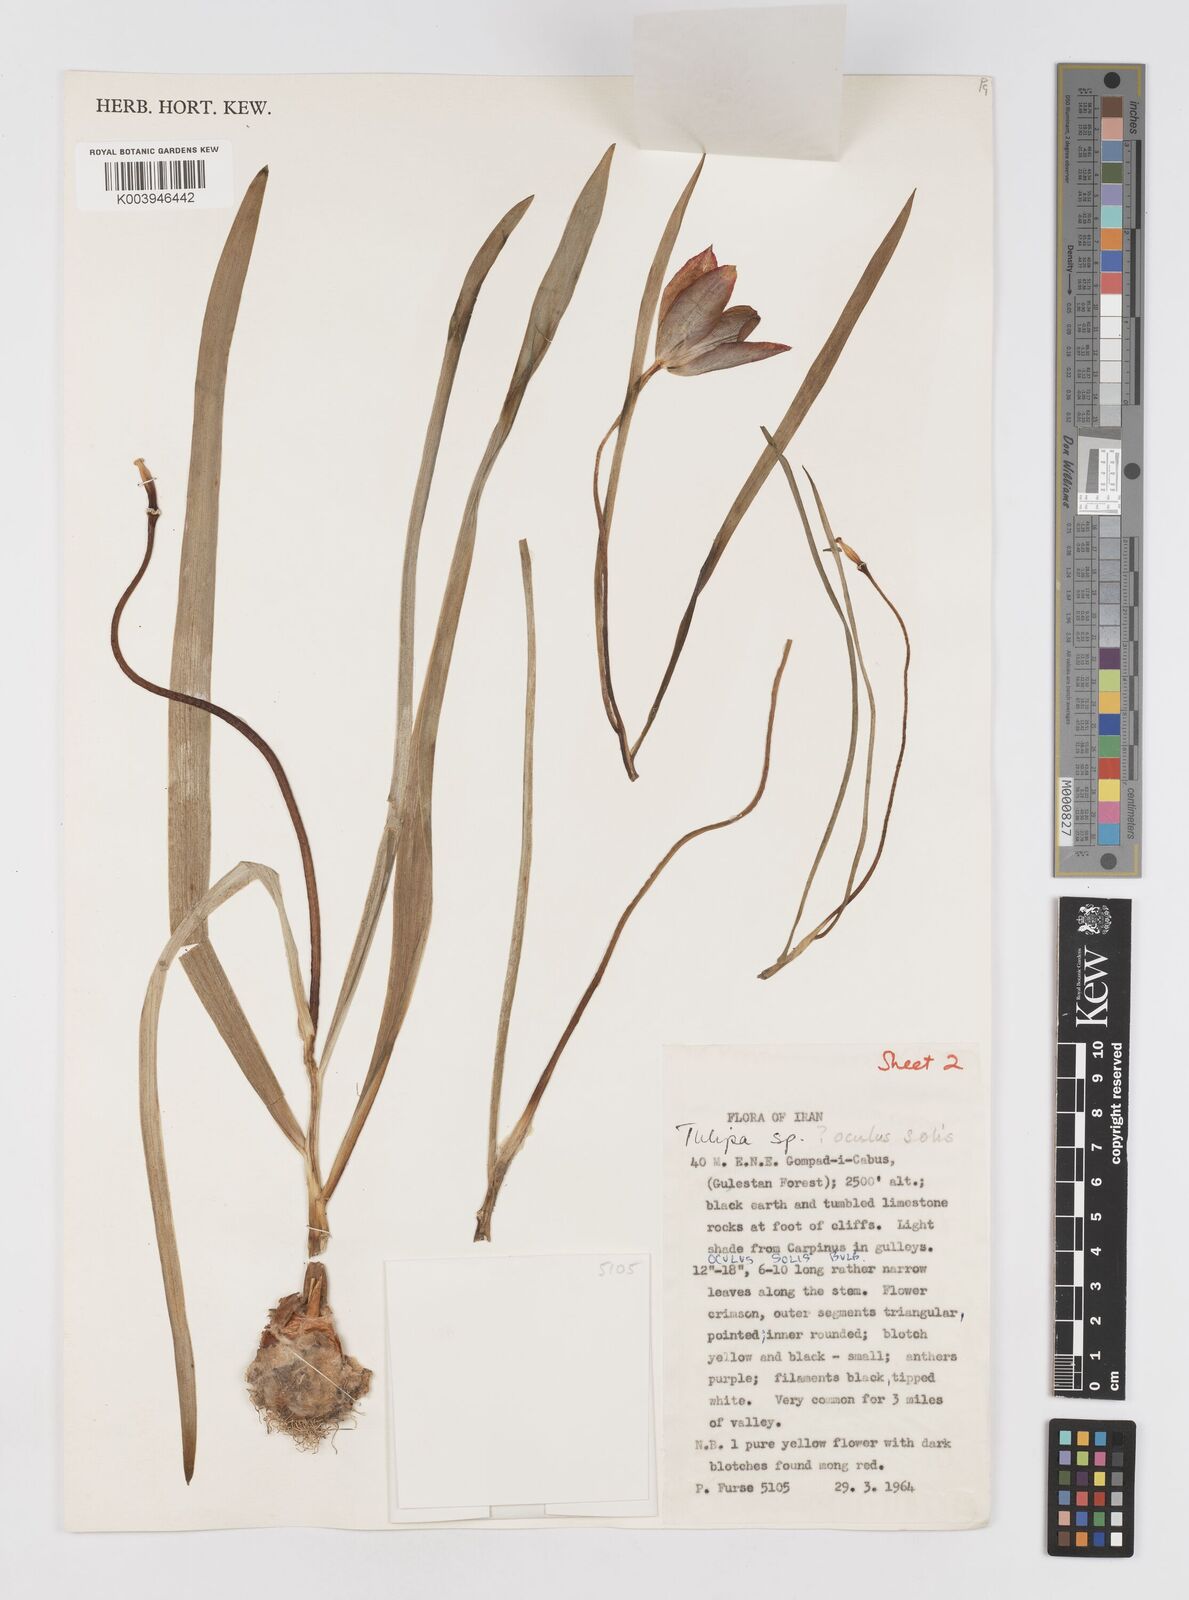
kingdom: Plantae
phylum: Tracheophyta
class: Liliopsida
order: Liliales
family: Liliaceae
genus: Tulipa
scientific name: Tulipa
